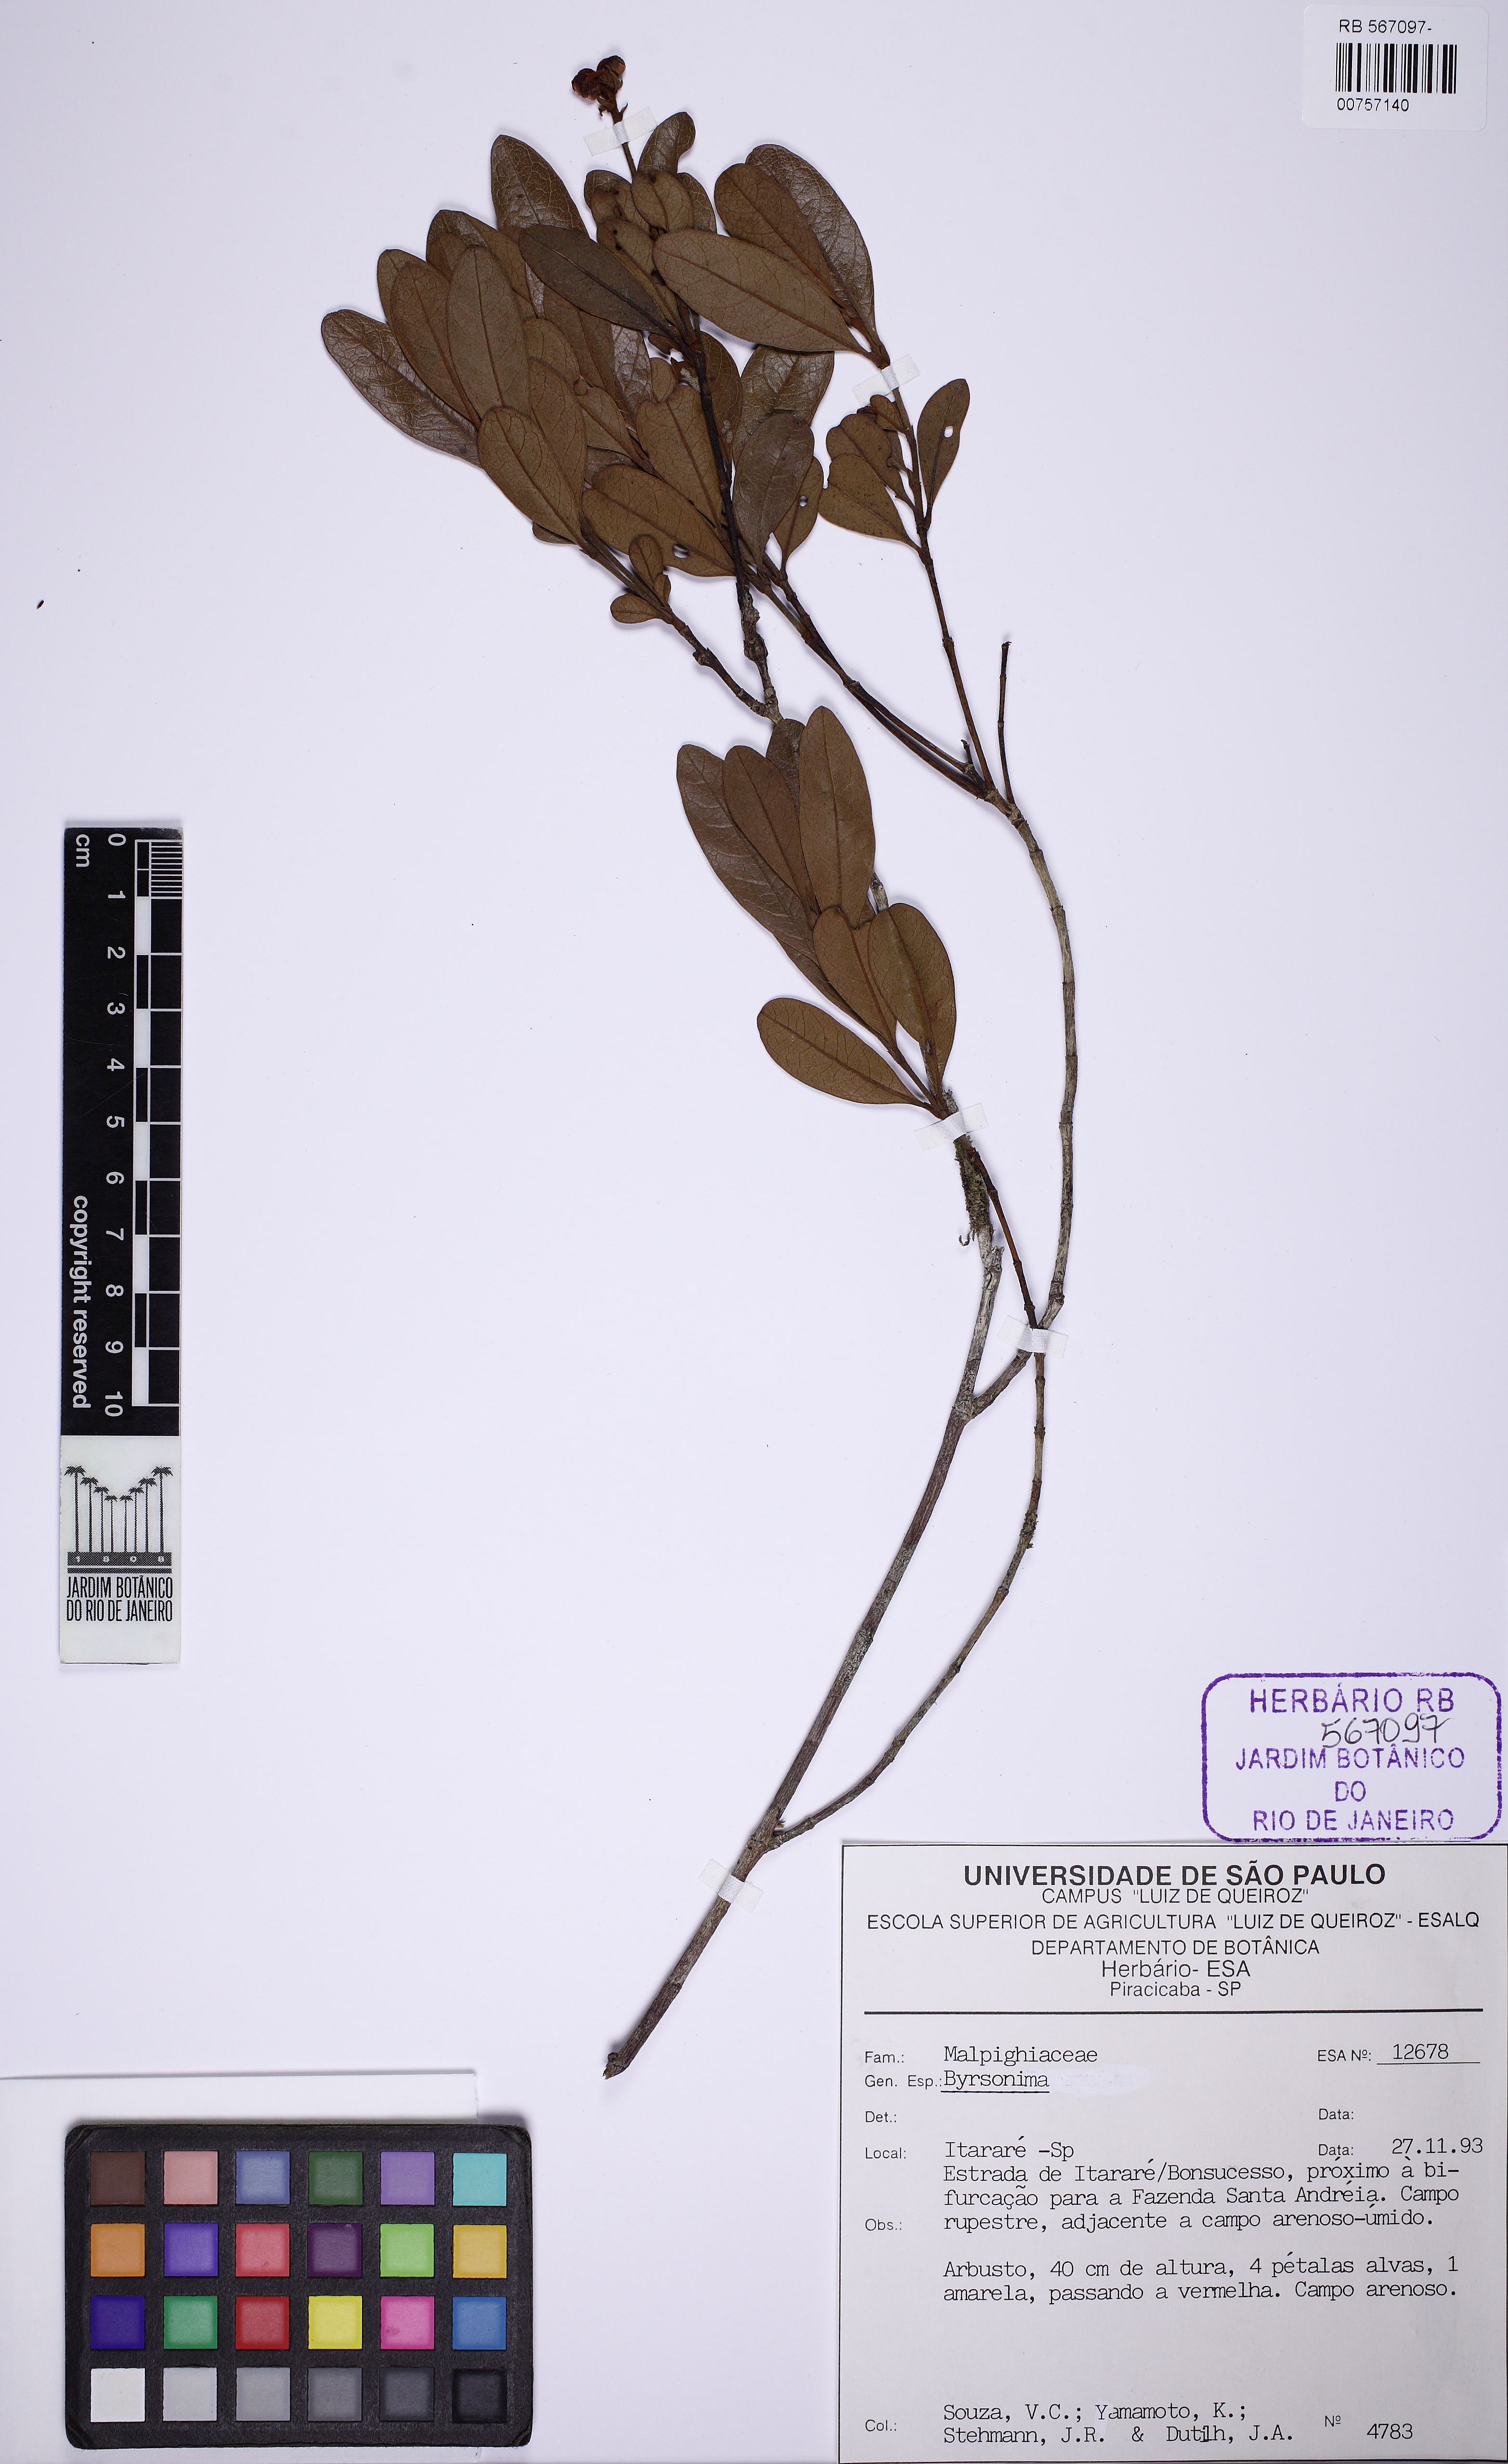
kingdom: Plantae
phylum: Tracheophyta
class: Magnoliopsida
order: Malpighiales
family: Malpighiaceae
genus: Byrsonima
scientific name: Byrsonima
